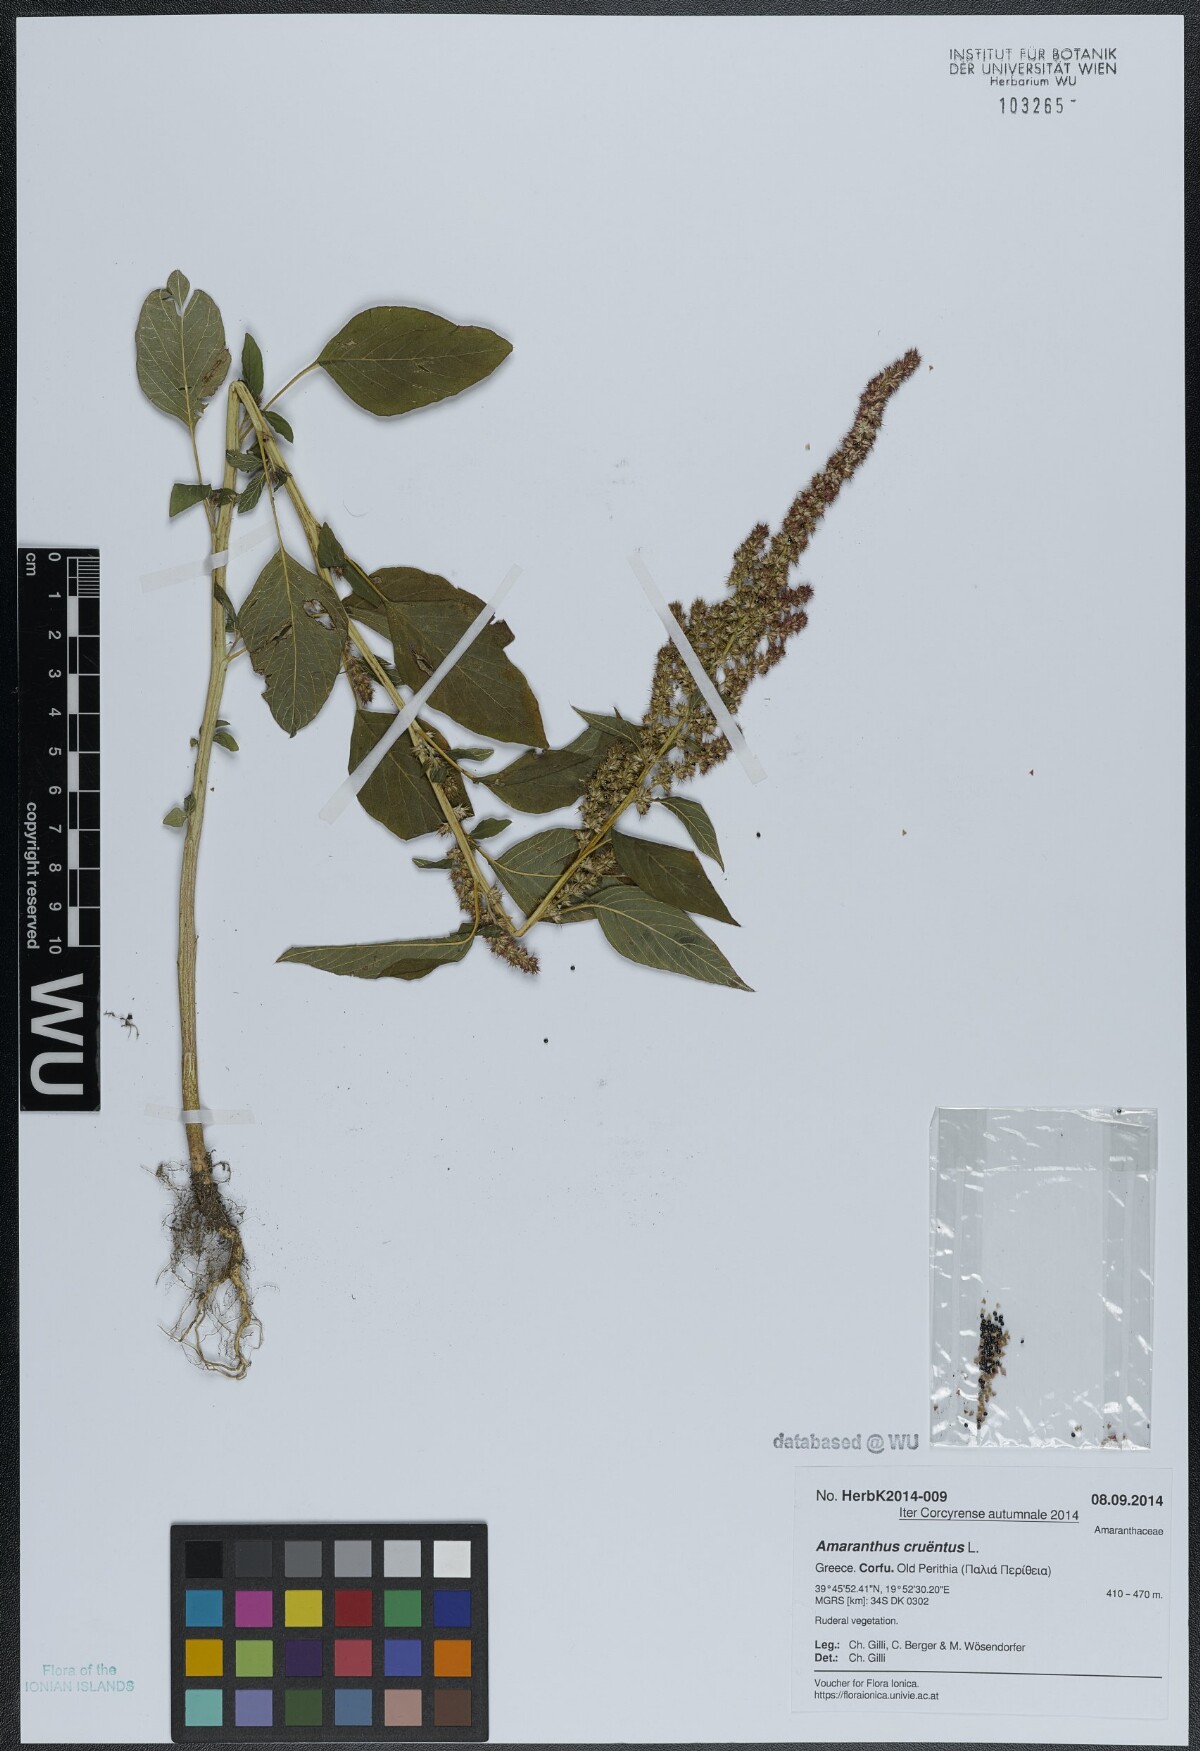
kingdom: Plantae
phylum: Tracheophyta
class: Magnoliopsida
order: Caryophyllales
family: Amaranthaceae
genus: Amaranthus
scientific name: Amaranthus cruentus
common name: Purple amaranth
